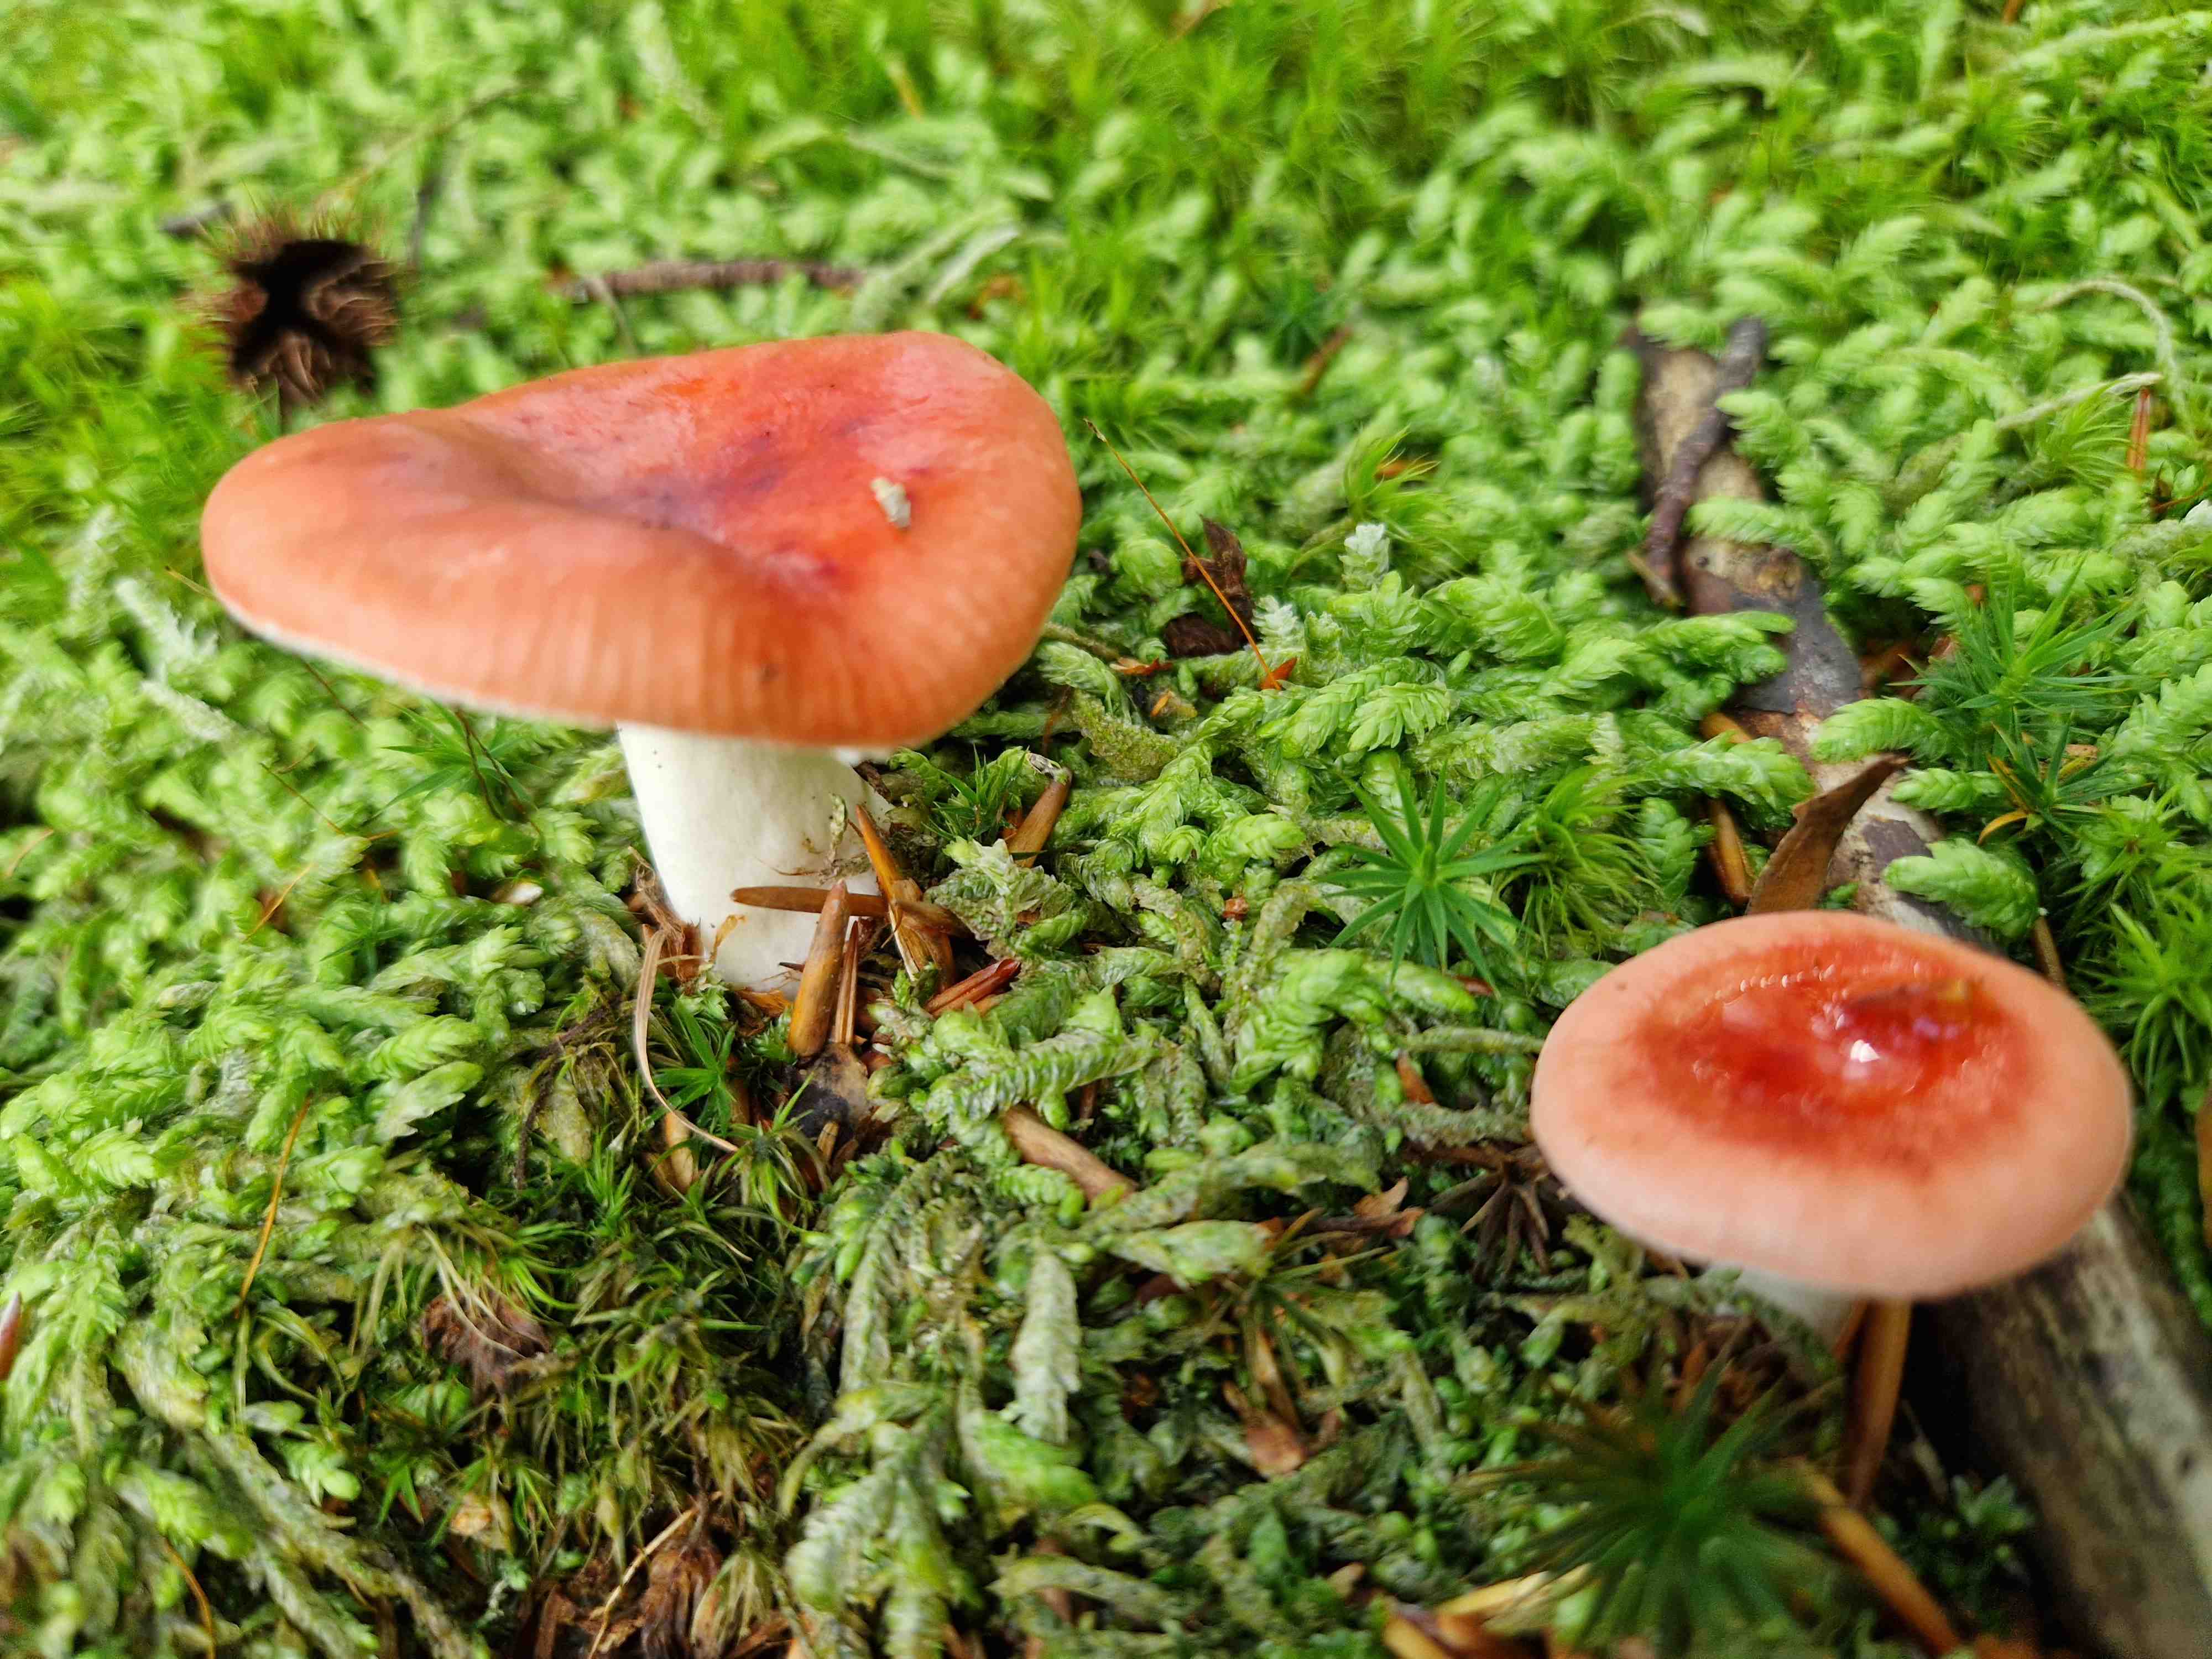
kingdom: Fungi
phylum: Basidiomycota
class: Agaricomycetes
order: Russulales
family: Russulaceae
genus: Russula
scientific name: Russula
